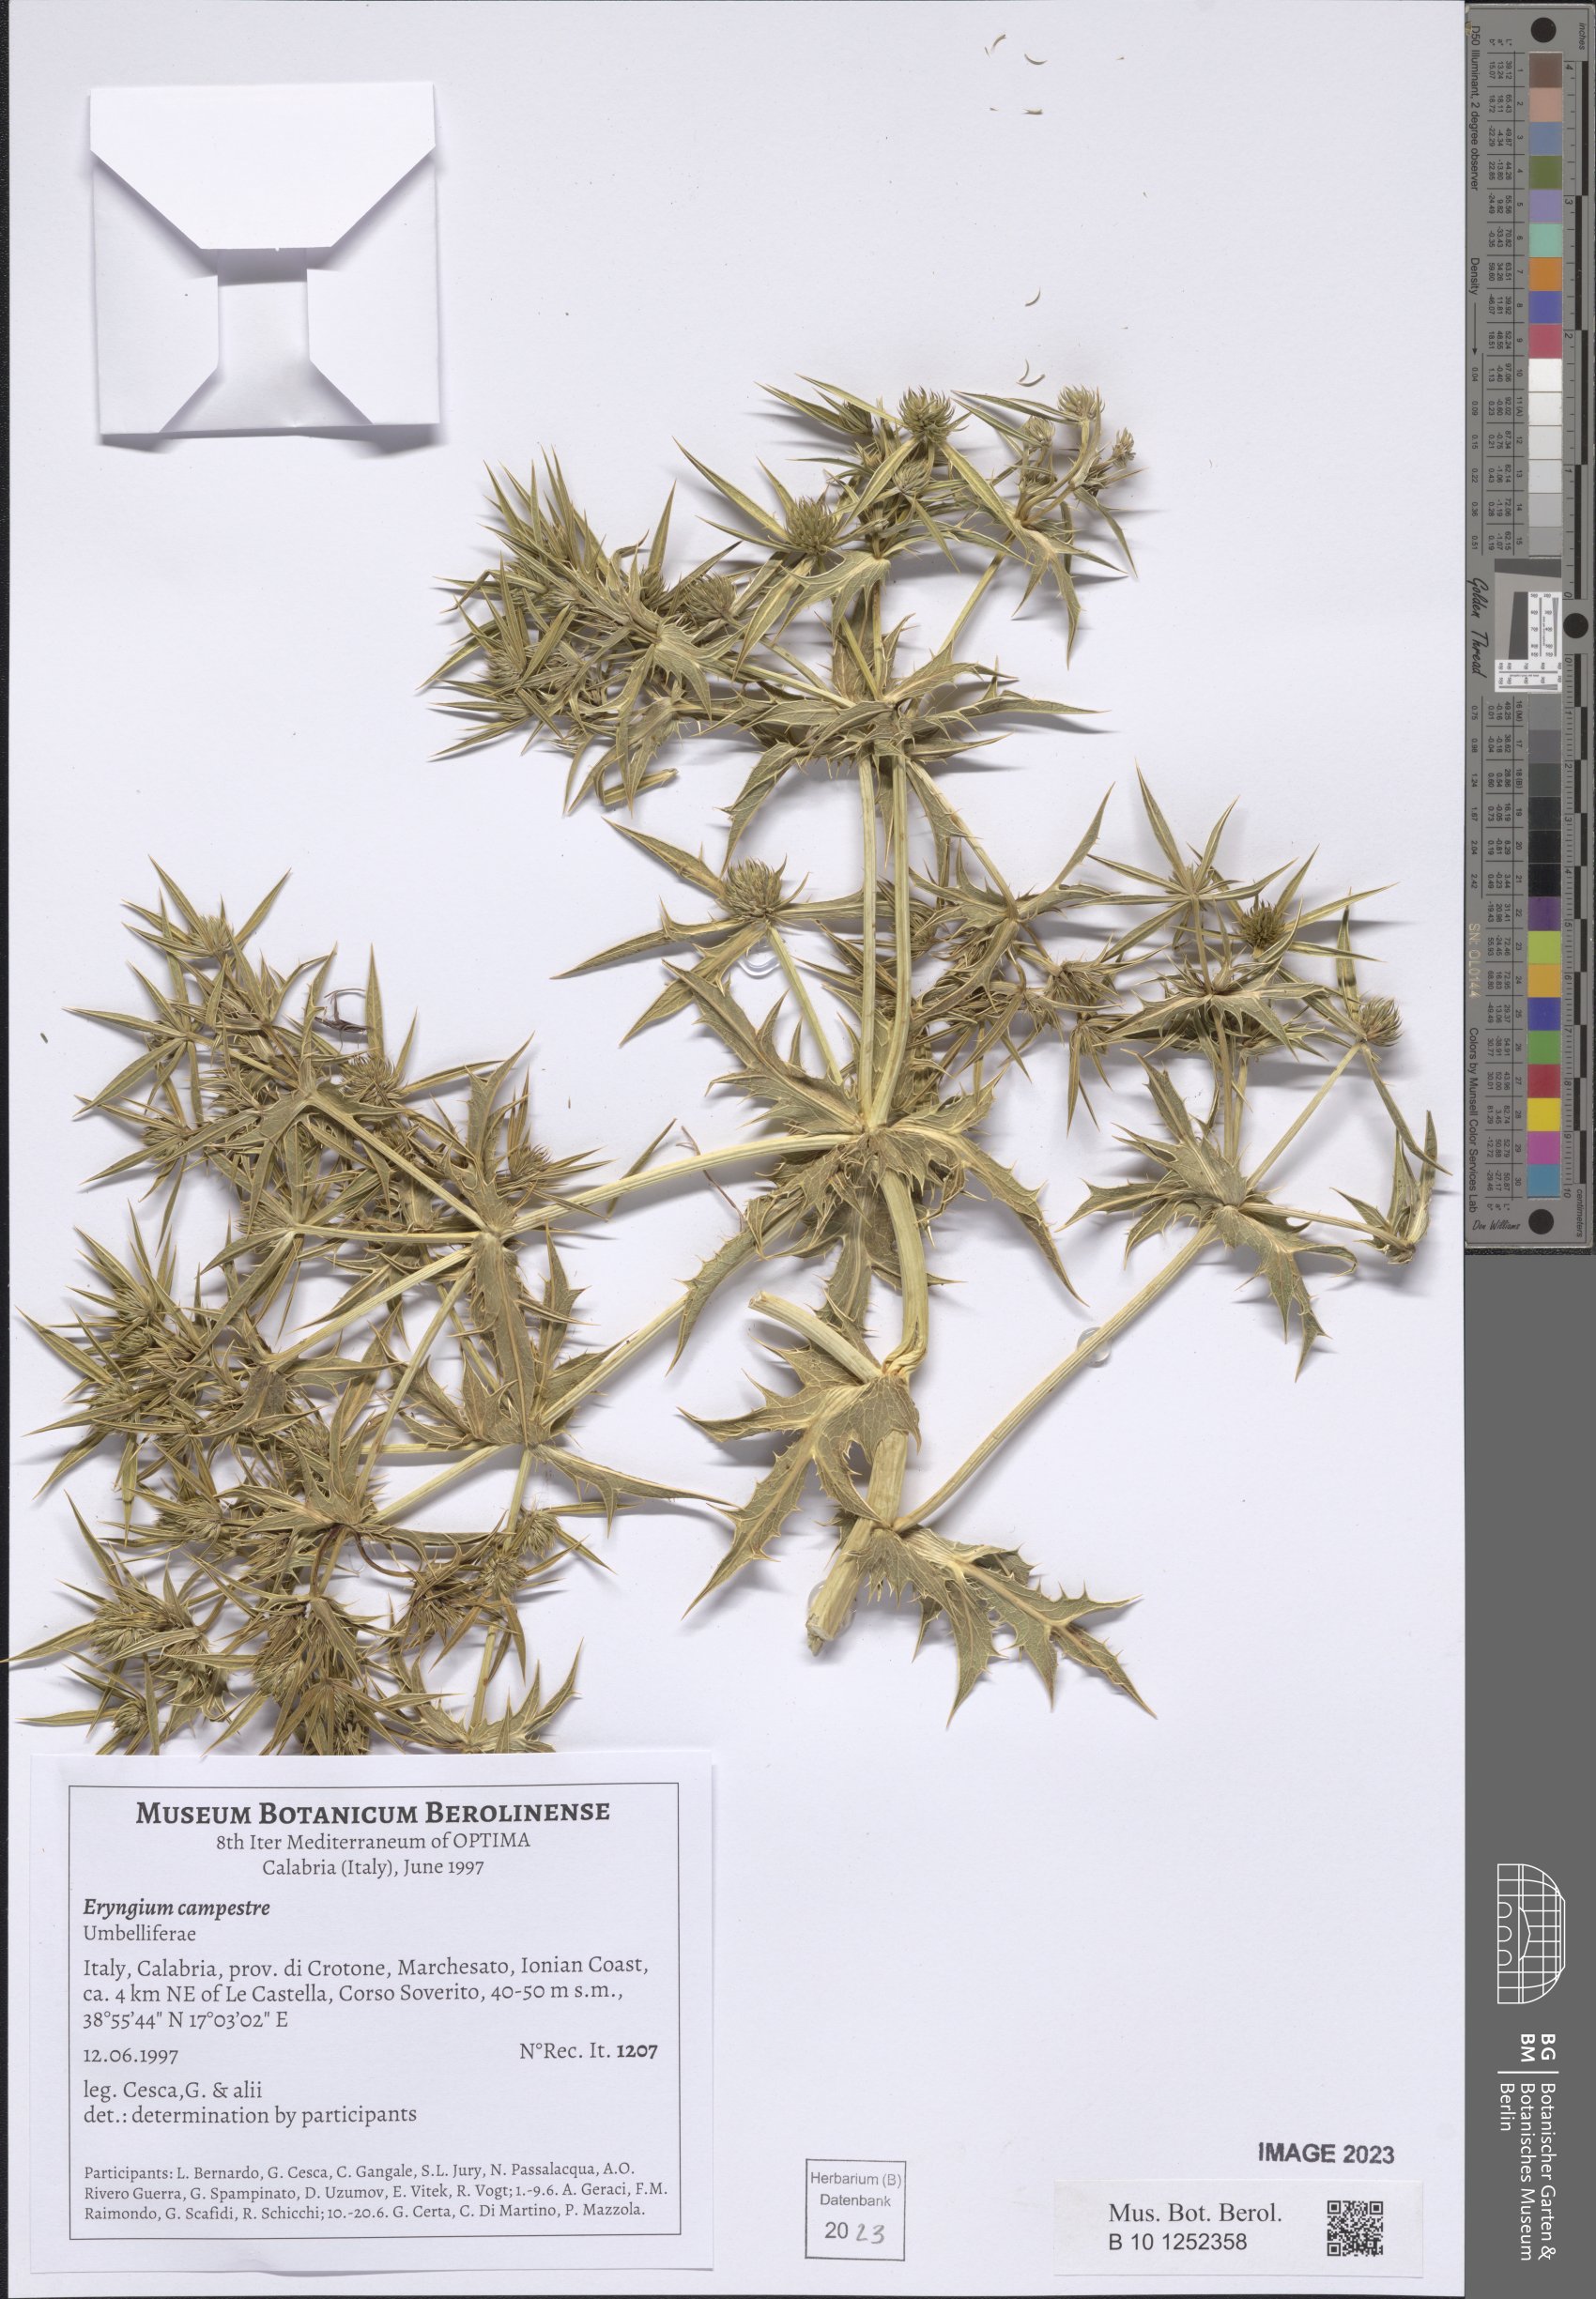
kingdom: Plantae
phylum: Tracheophyta
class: Magnoliopsida
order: Apiales
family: Apiaceae
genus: Eryngium
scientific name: Eryngium campestre
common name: Field eryngo
